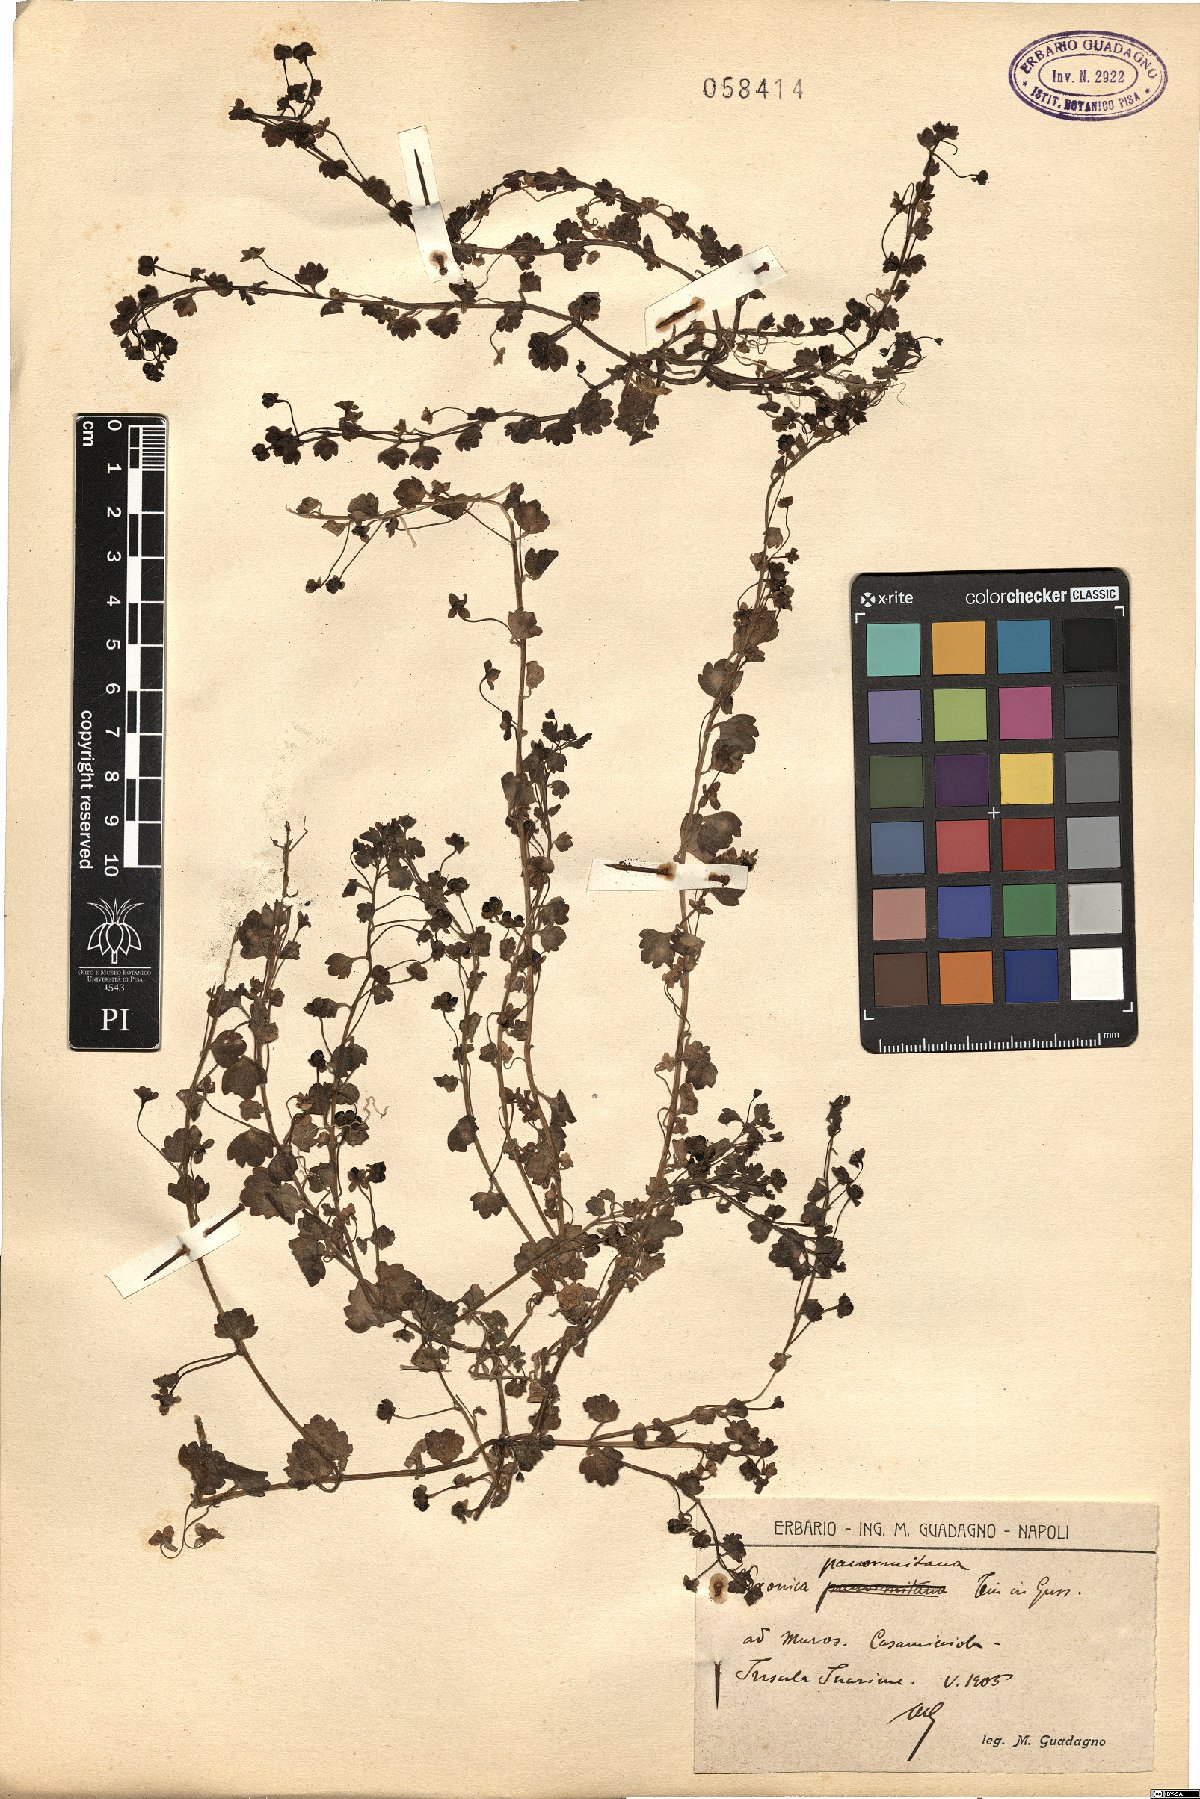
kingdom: Plantae
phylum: Tracheophyta
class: Magnoliopsida
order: Lamiales
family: Plantaginaceae
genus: Veronica
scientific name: Veronica panormitana
